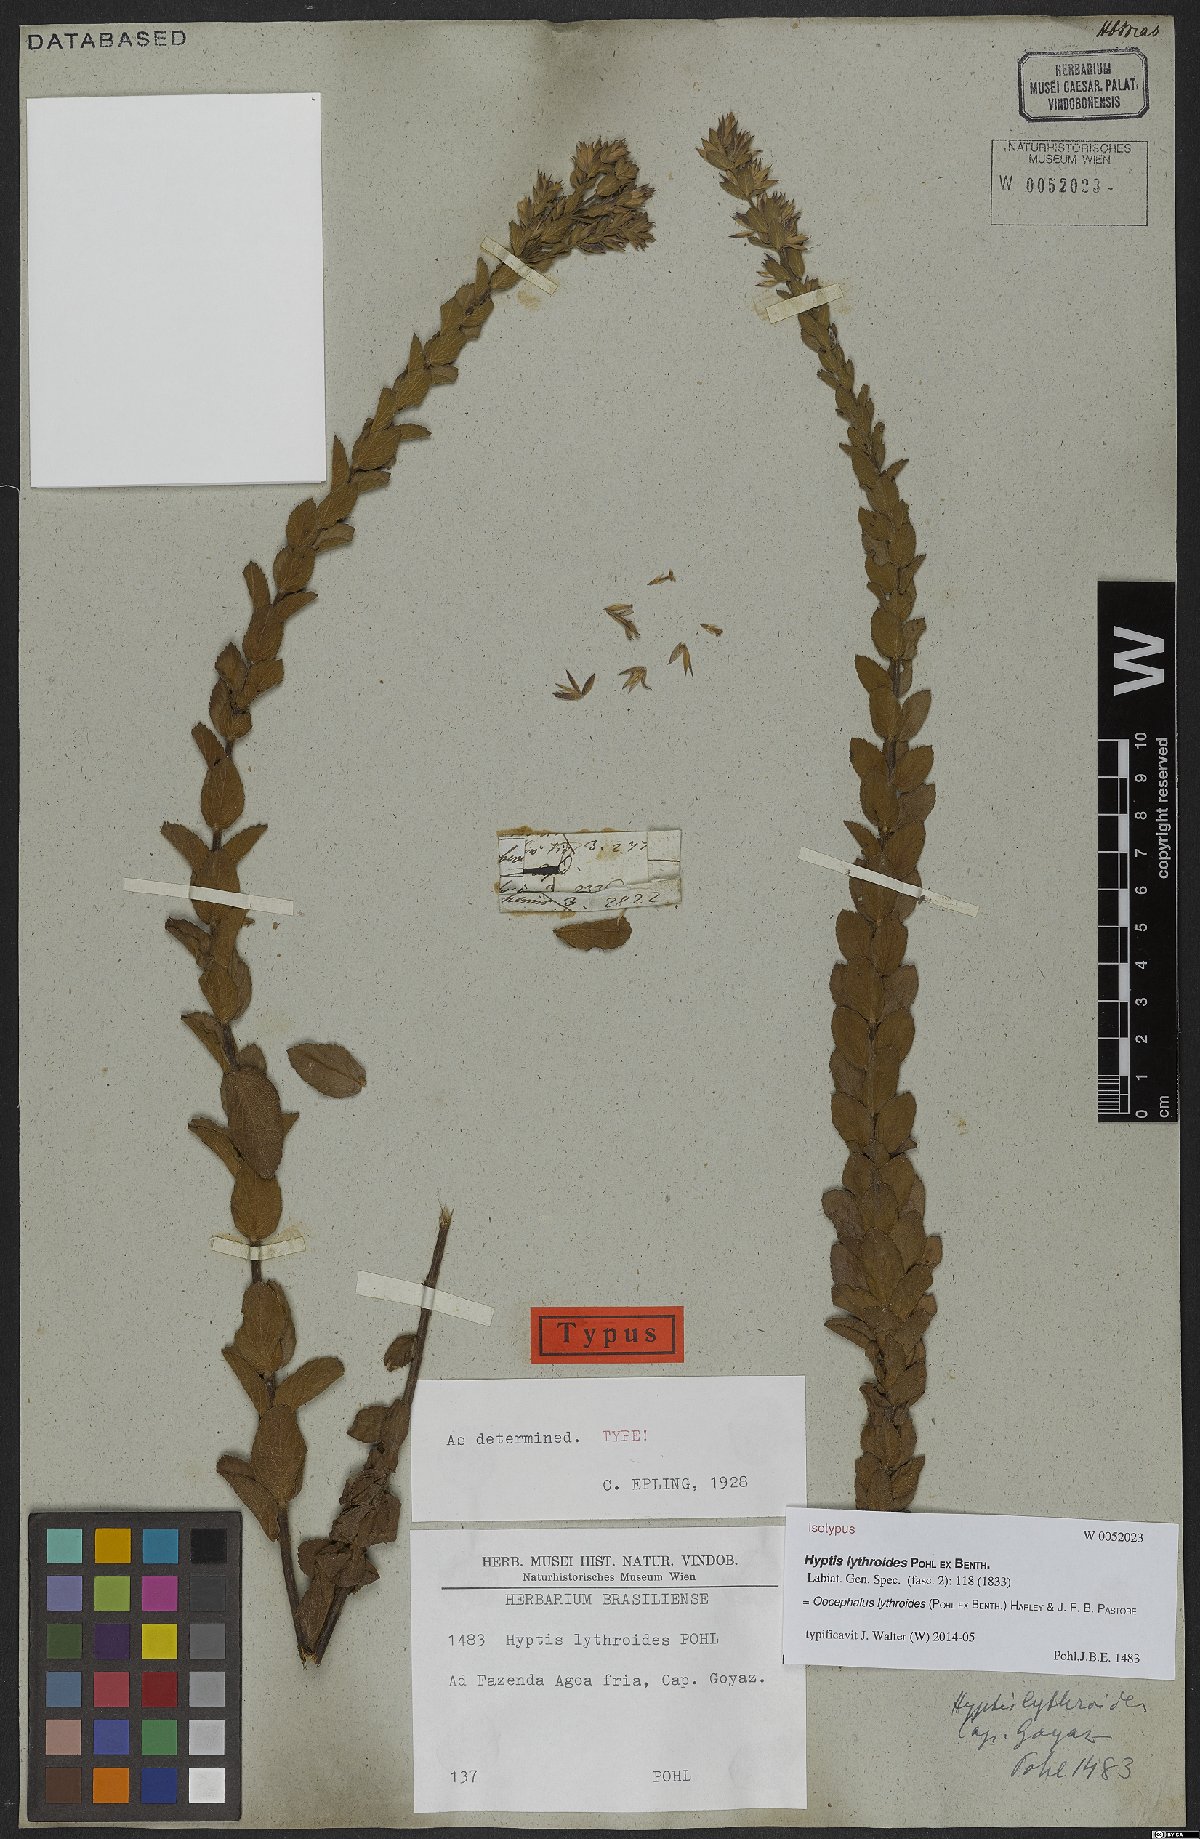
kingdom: Plantae
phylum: Tracheophyta
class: Magnoliopsida
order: Lamiales
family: Lamiaceae
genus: Oocephalus
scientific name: Oocephalus lythroides
